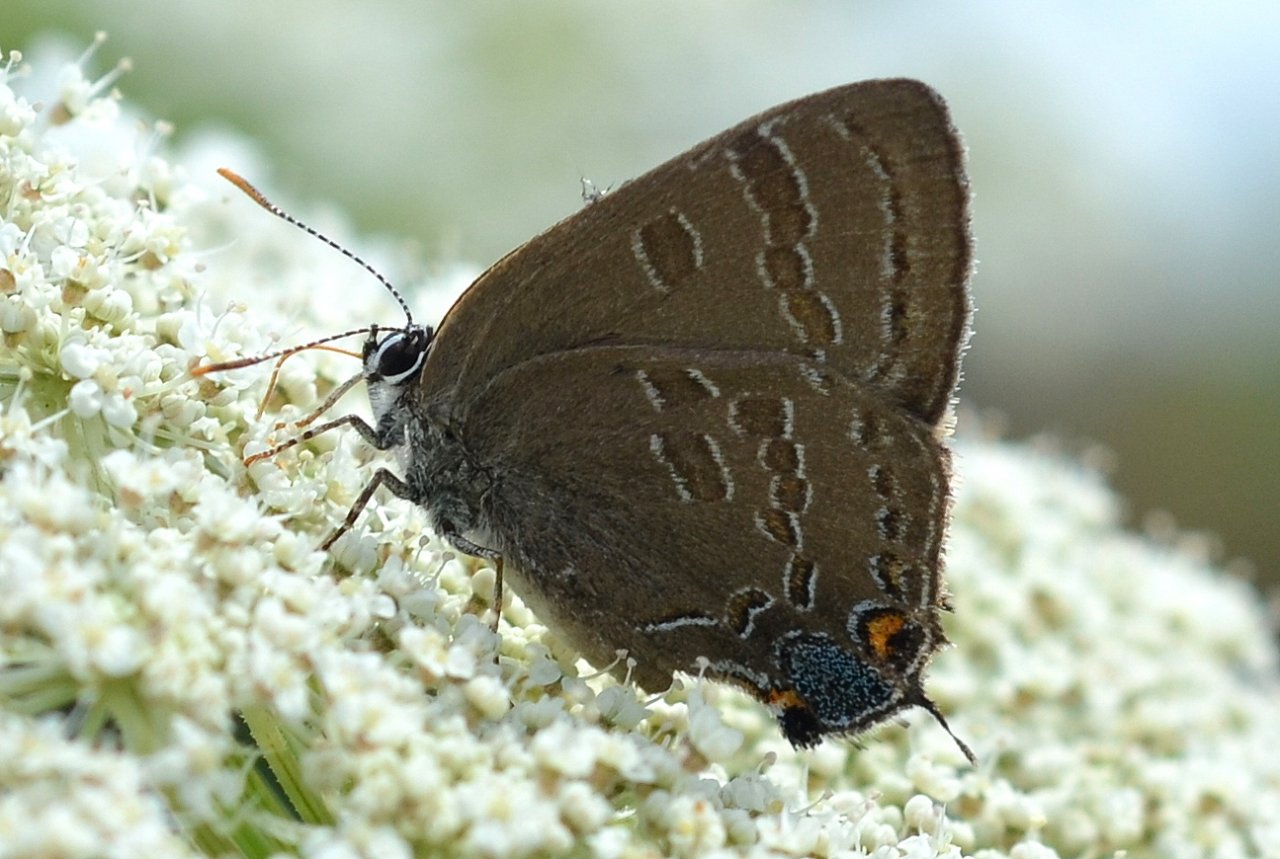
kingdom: Animalia
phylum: Arthropoda
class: Insecta
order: Lepidoptera
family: Lycaenidae
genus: Strymon
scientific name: Strymon caryaevorus
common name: Hickory Hairstreak
